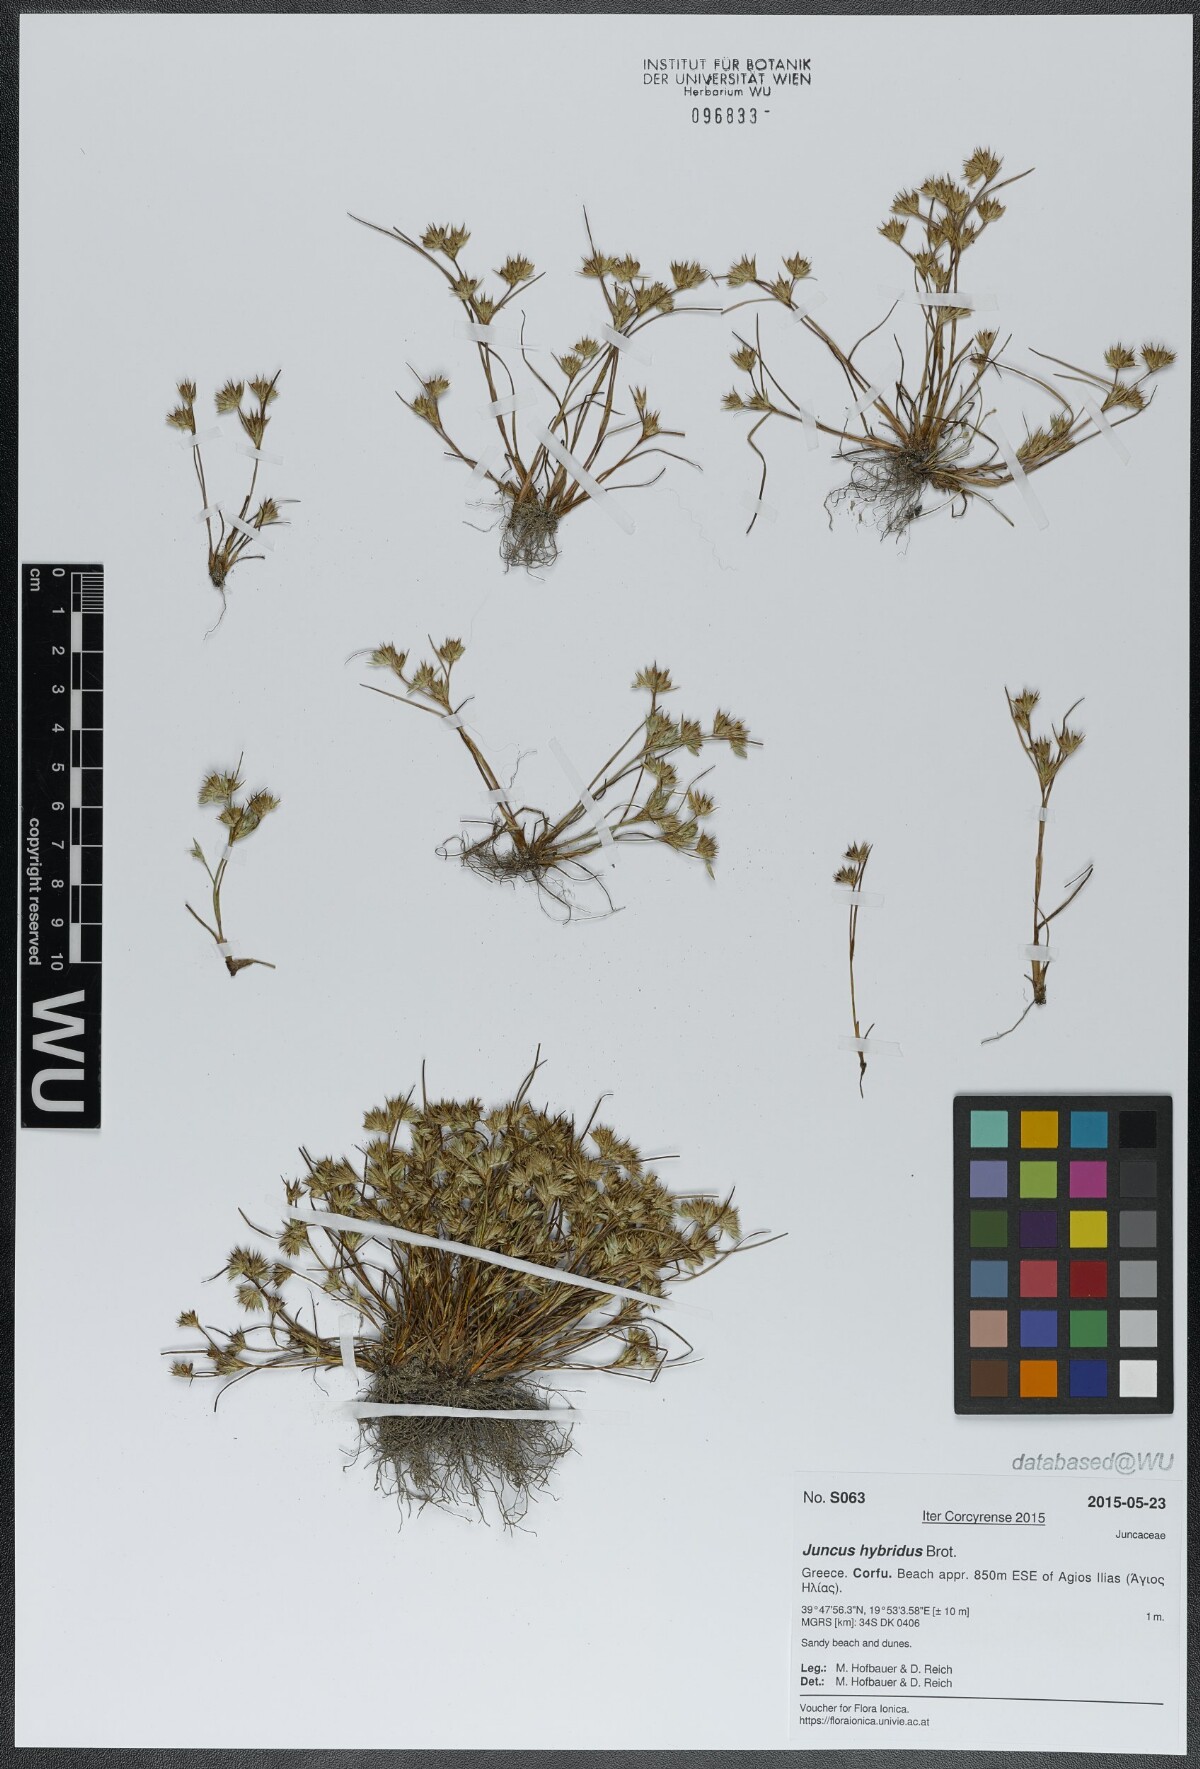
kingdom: Plantae
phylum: Tracheophyta
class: Liliopsida
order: Poales
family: Juncaceae
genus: Juncus
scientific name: Juncus hybridus
